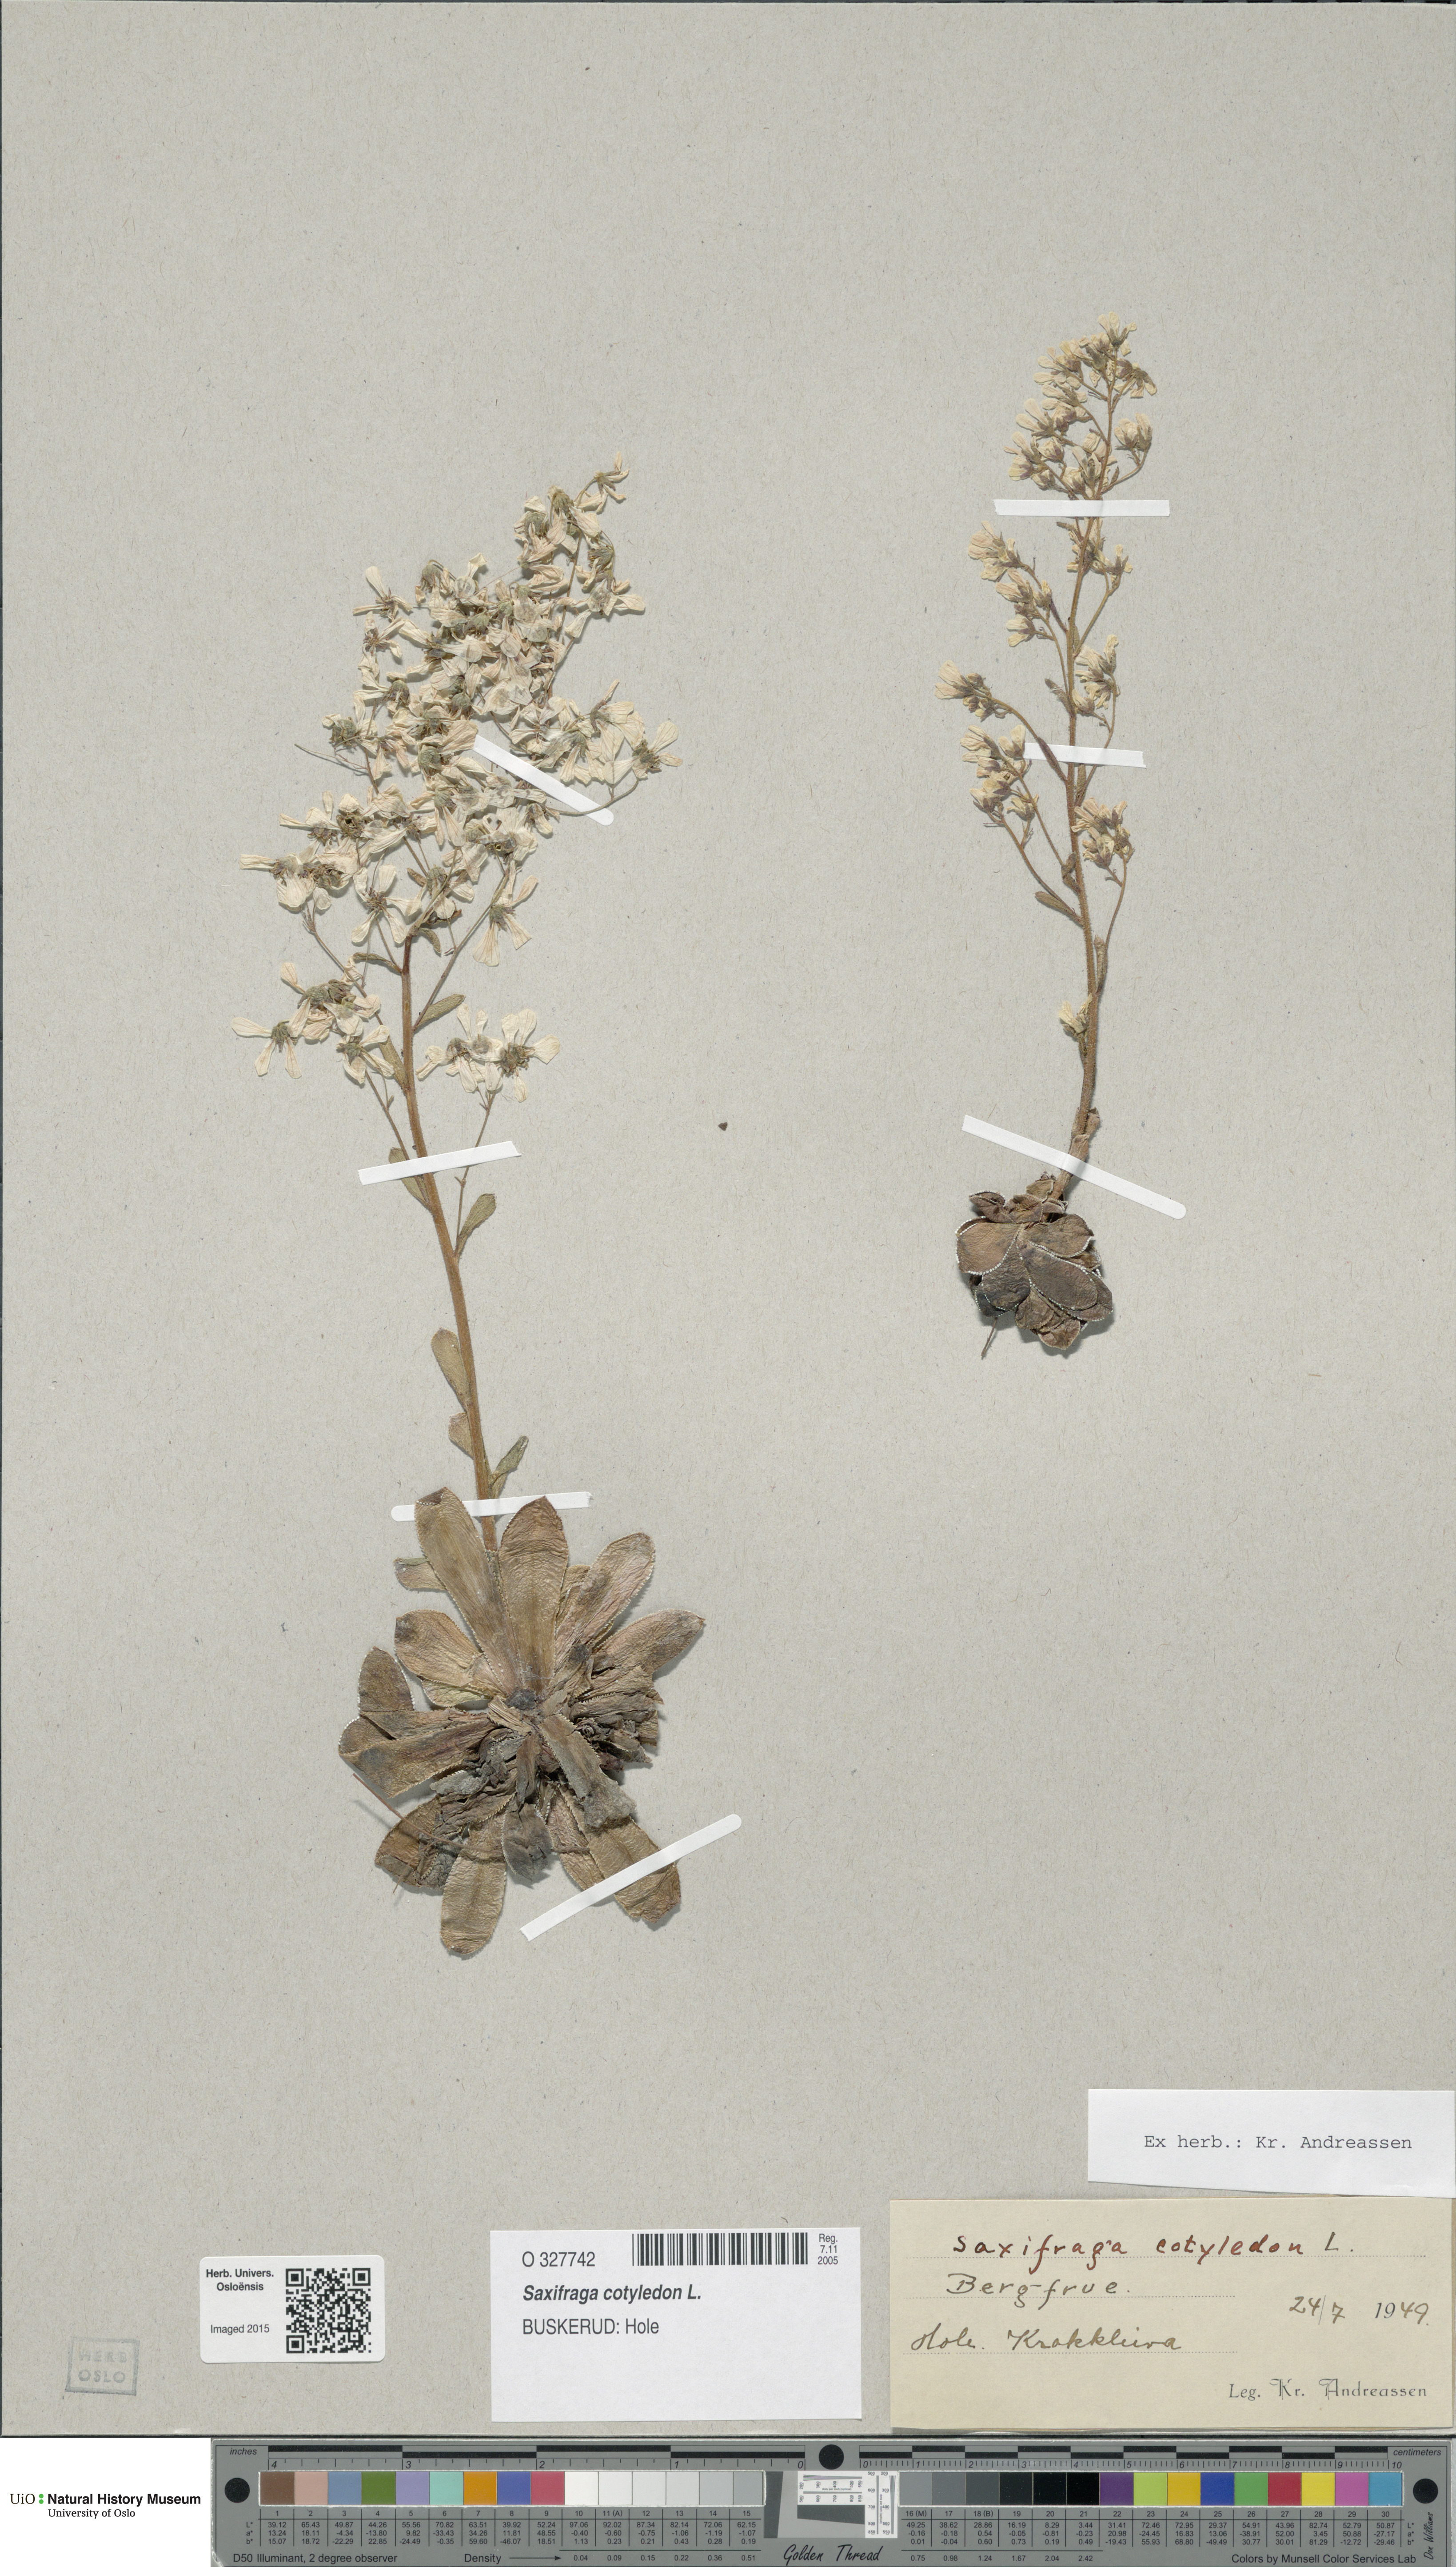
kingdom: Plantae
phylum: Tracheophyta
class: Magnoliopsida
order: Saxifragales
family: Saxifragaceae
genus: Saxifraga
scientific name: Saxifraga cotyledon
